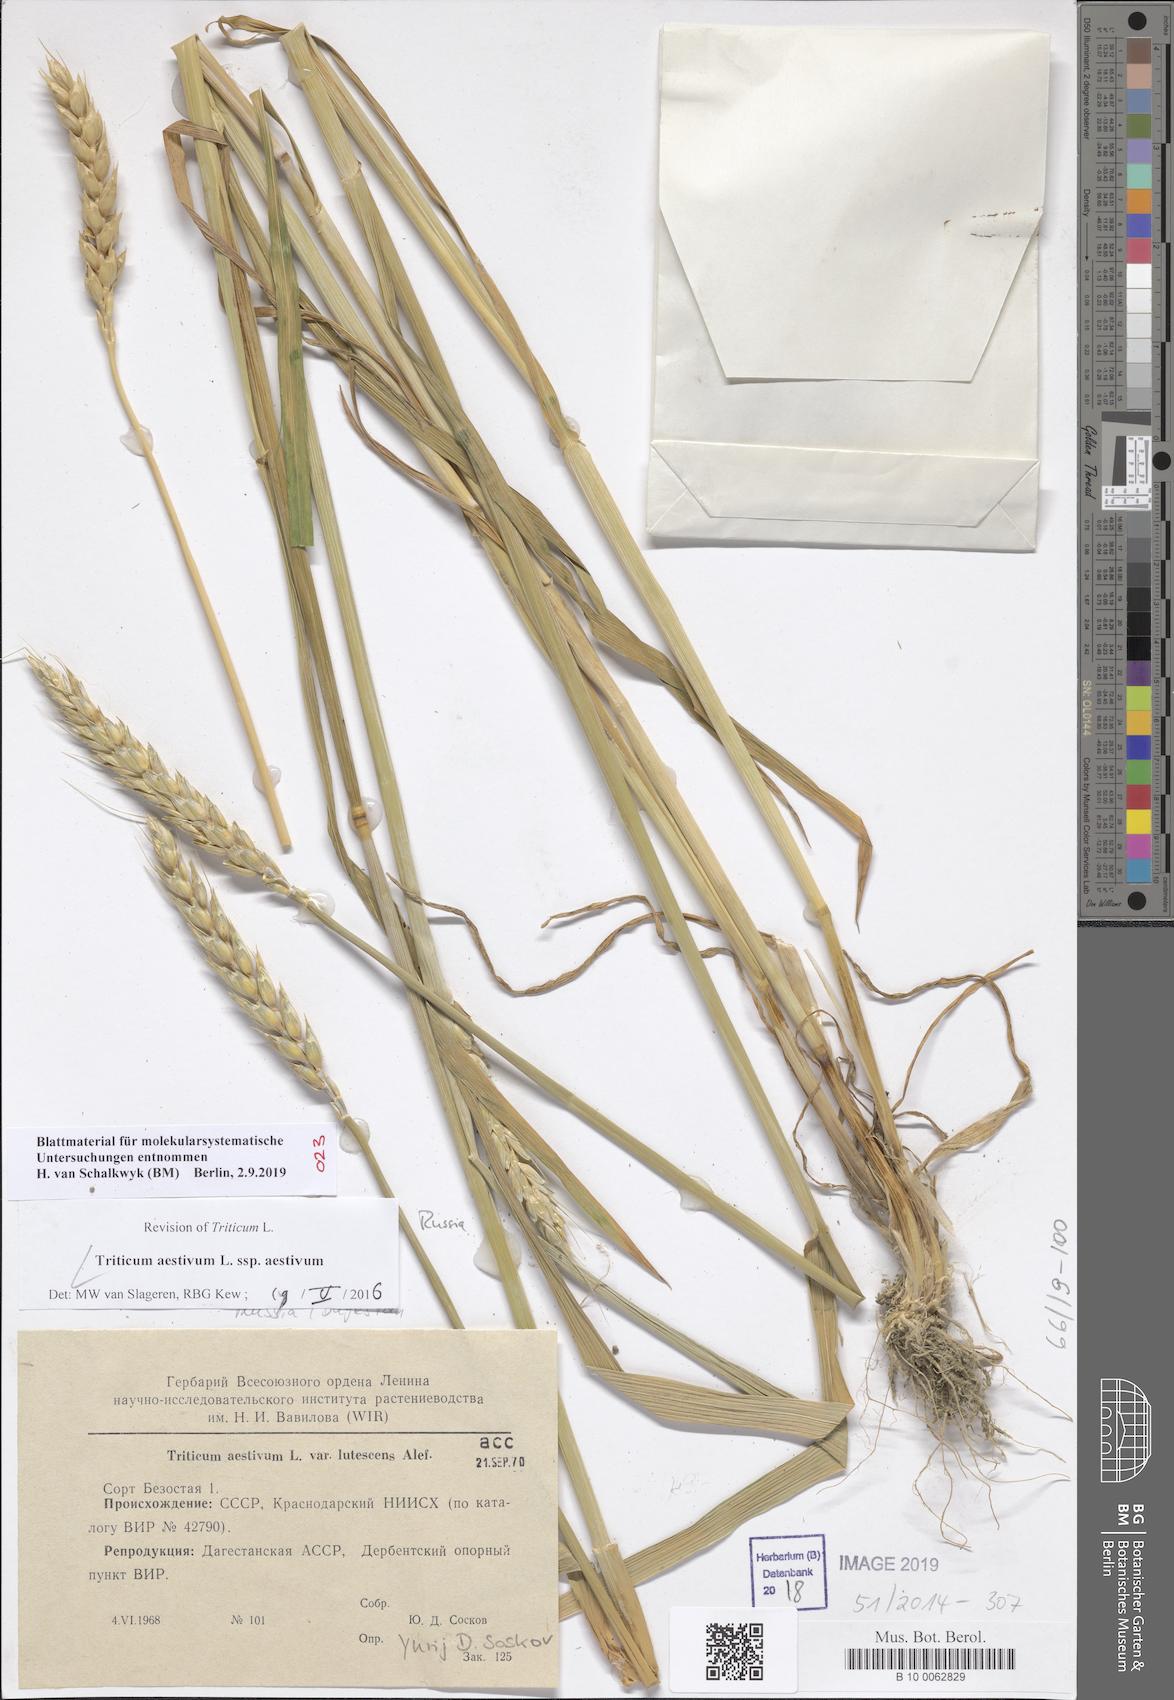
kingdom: Plantae
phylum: Tracheophyta
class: Liliopsida
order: Poales
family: Poaceae
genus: Triticum
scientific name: Triticum aestivum
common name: Common wheat
